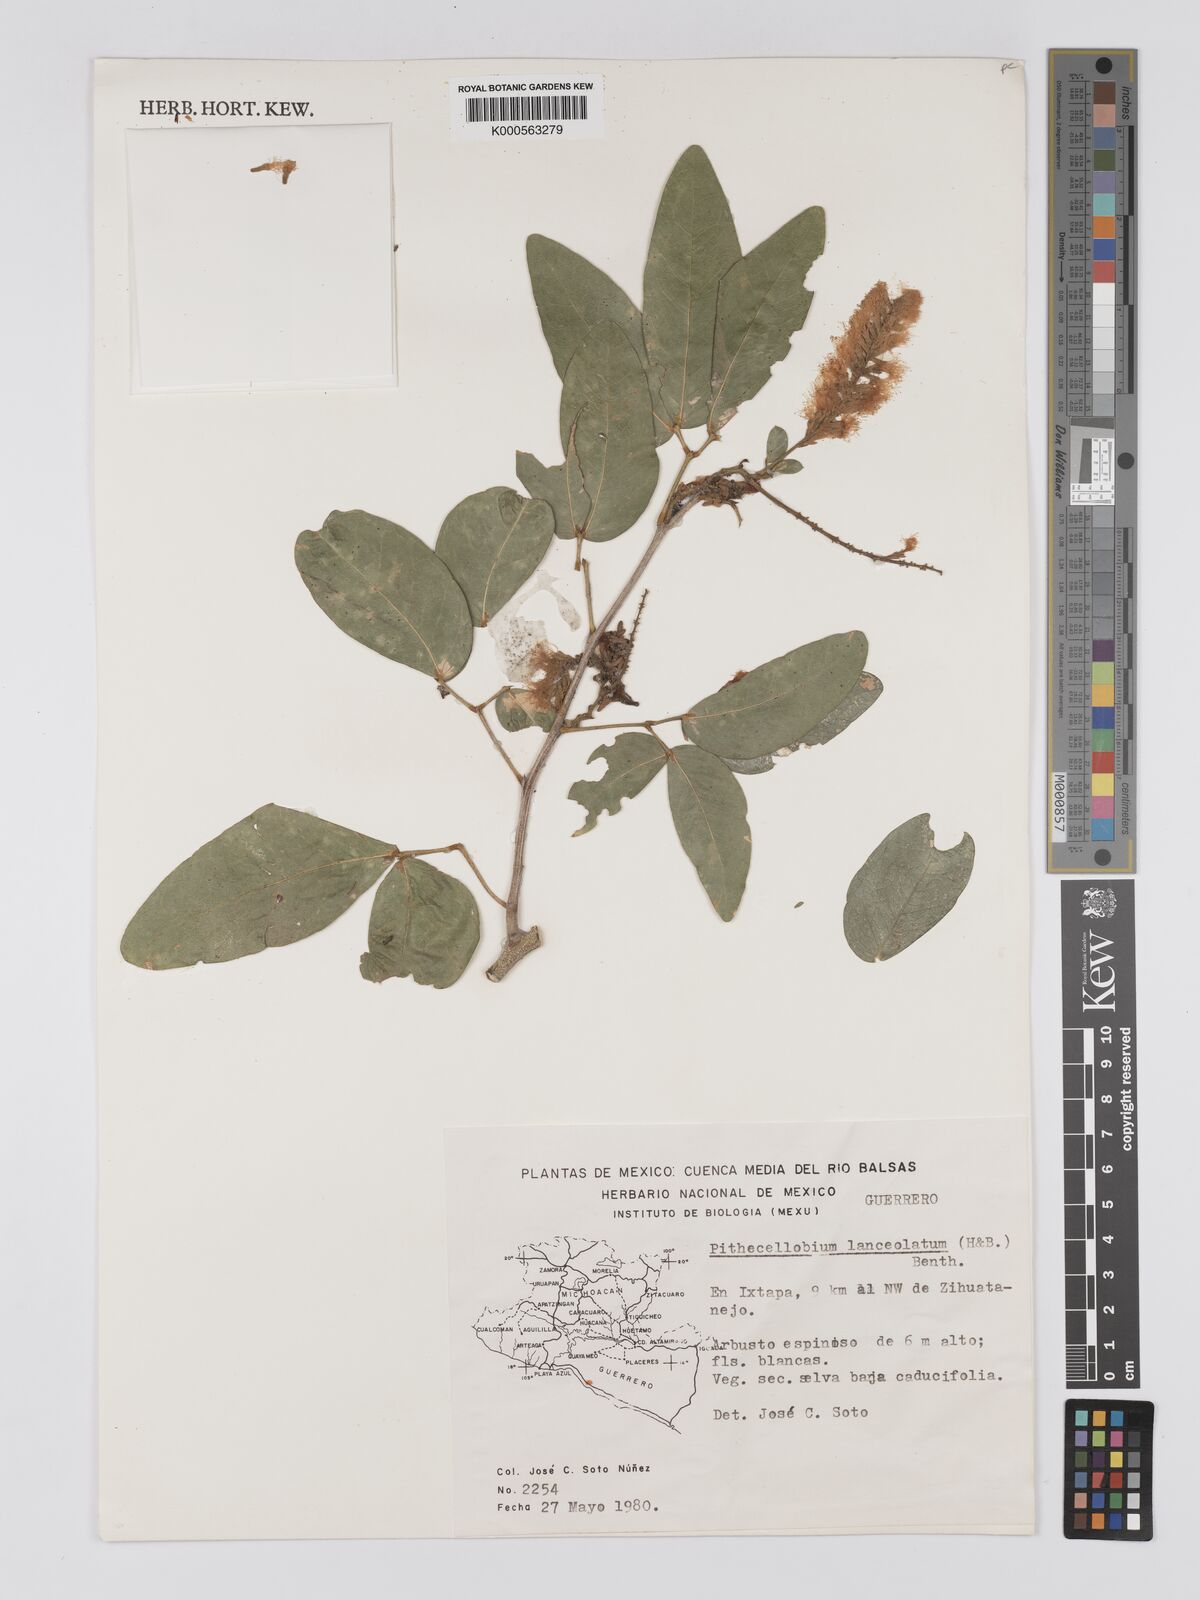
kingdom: Plantae
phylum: Tracheophyta
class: Magnoliopsida
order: Fabales
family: Fabaceae
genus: Pithecellobium
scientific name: Pithecellobium lanceolatum
